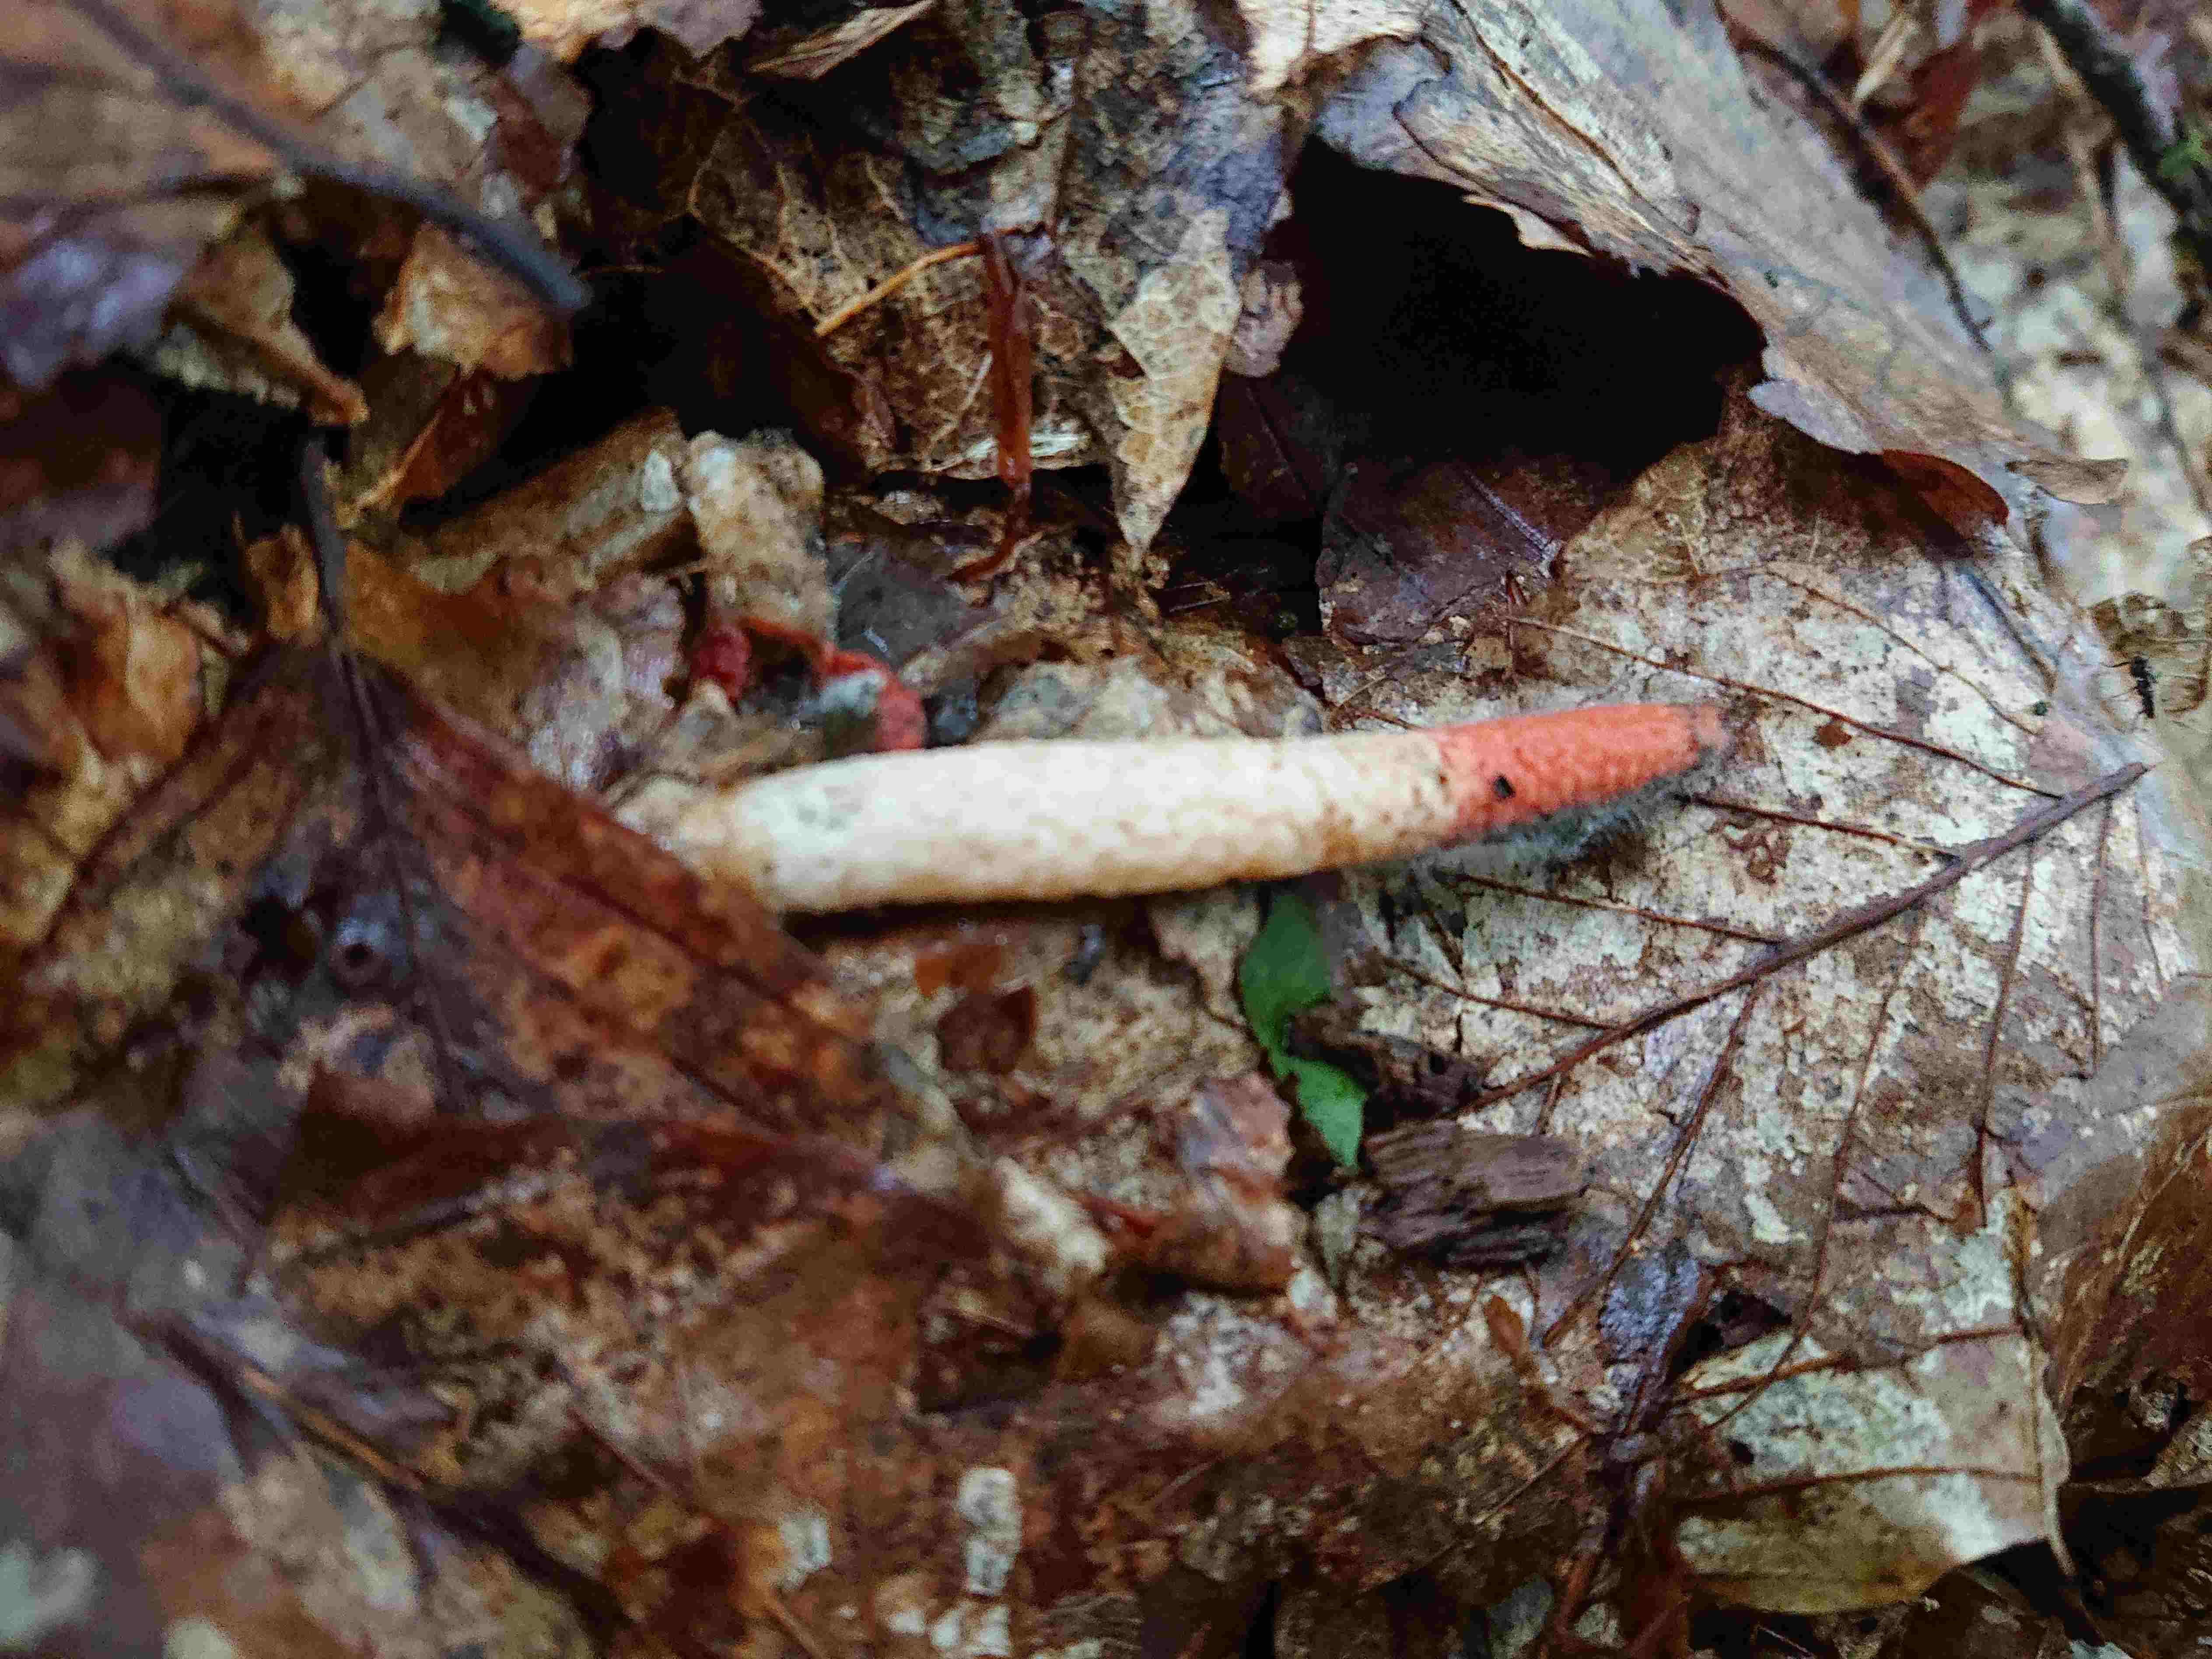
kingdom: Fungi
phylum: Basidiomycota
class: Agaricomycetes
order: Phallales
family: Phallaceae
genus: Mutinus
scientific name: Mutinus caninus
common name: hunde-stinksvamp
